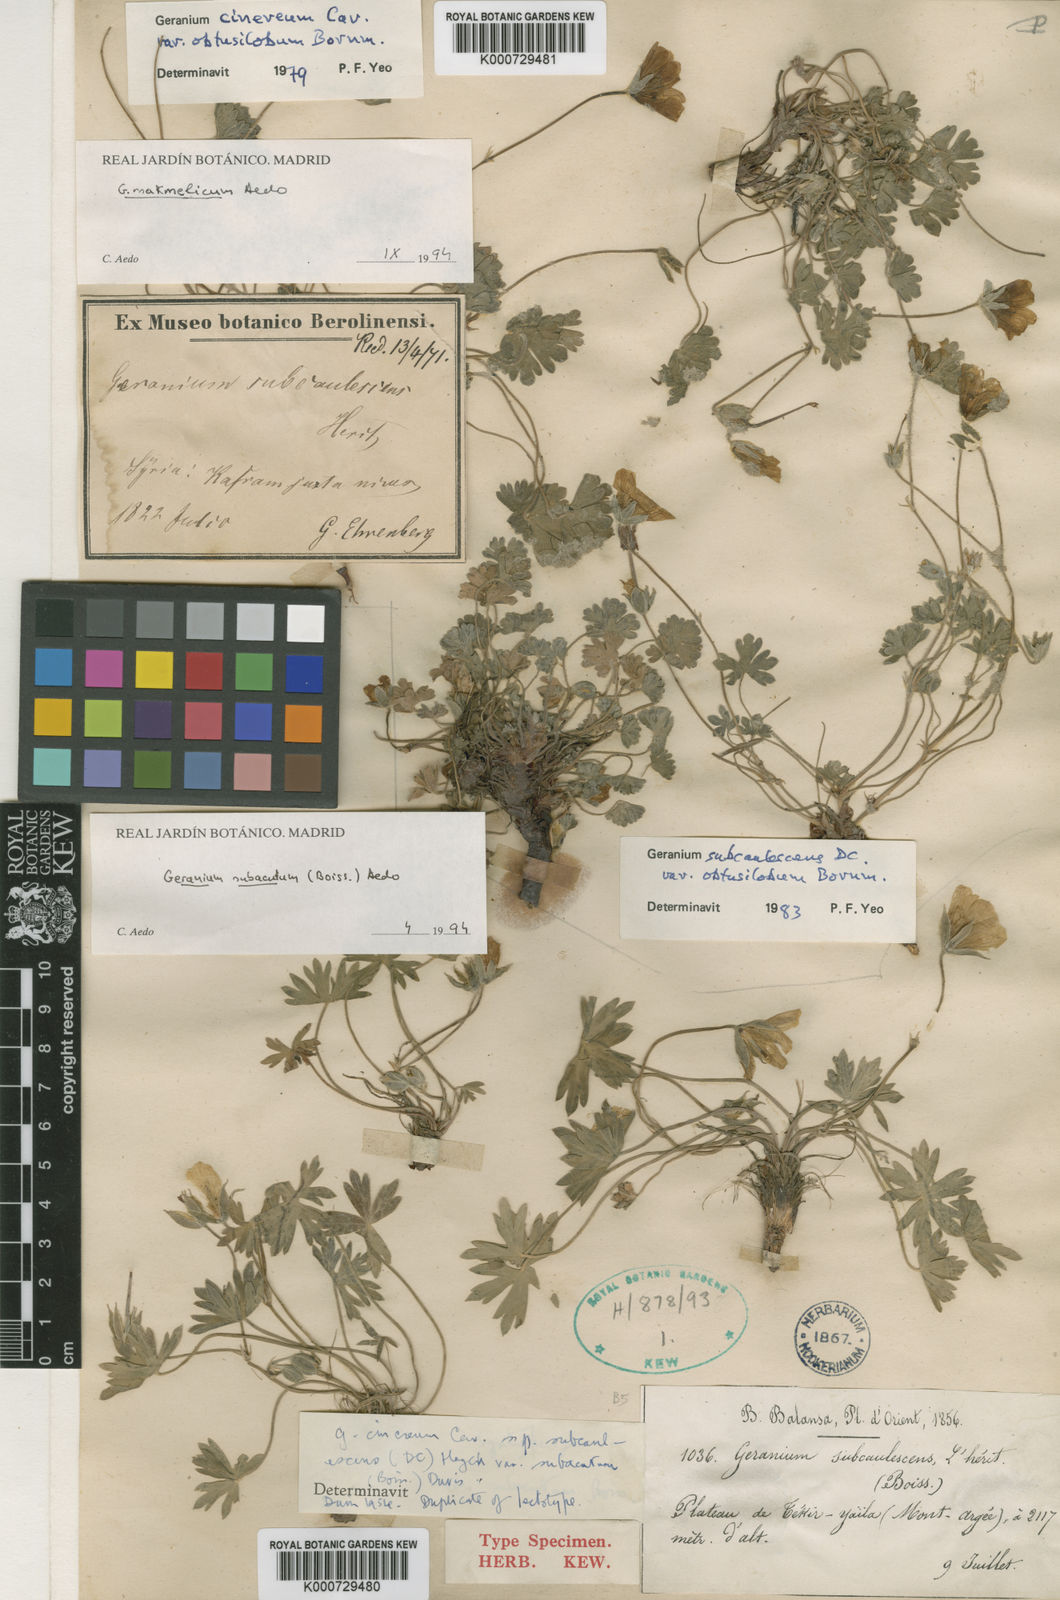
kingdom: Plantae
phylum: Tracheophyta
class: Magnoliopsida
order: Geraniales
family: Geraniaceae
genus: Geranium
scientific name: Geranium subacutum
